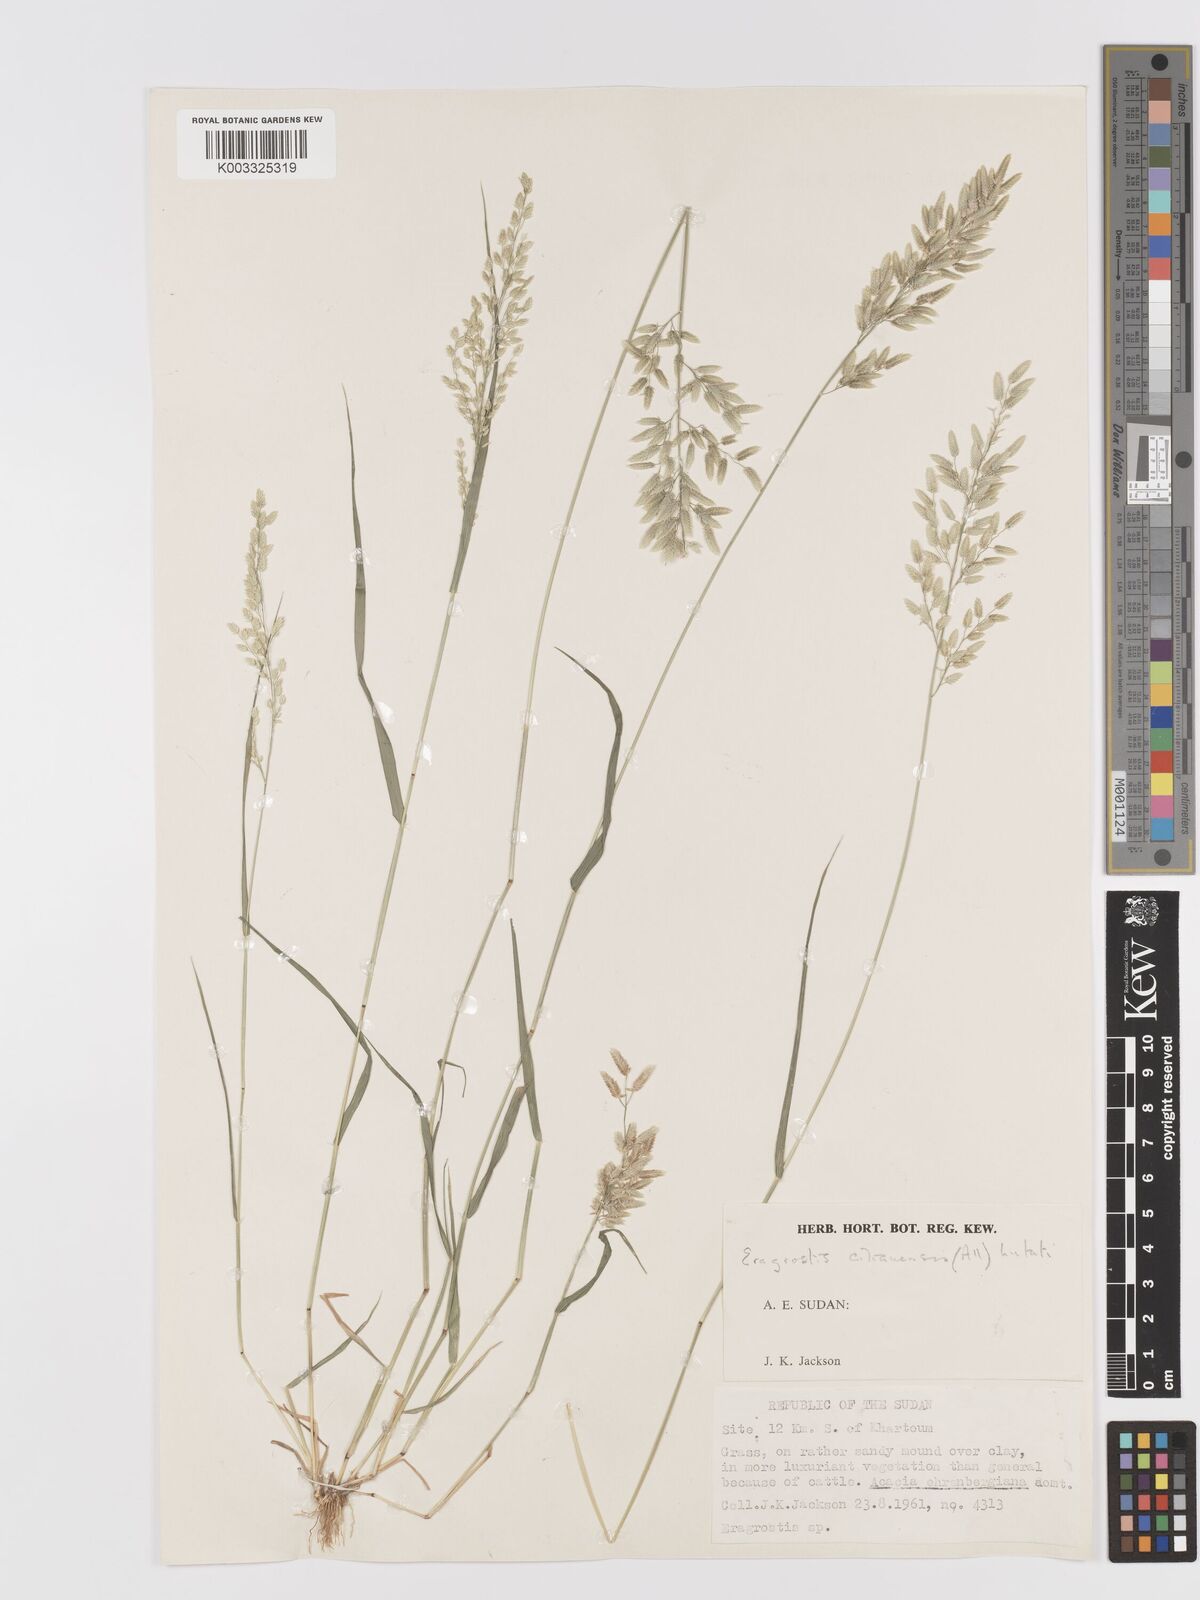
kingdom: Plantae
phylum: Tracheophyta
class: Liliopsida
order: Poales
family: Poaceae
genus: Eragrostis
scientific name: Eragrostis cilianensis
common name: Stinkgrass
